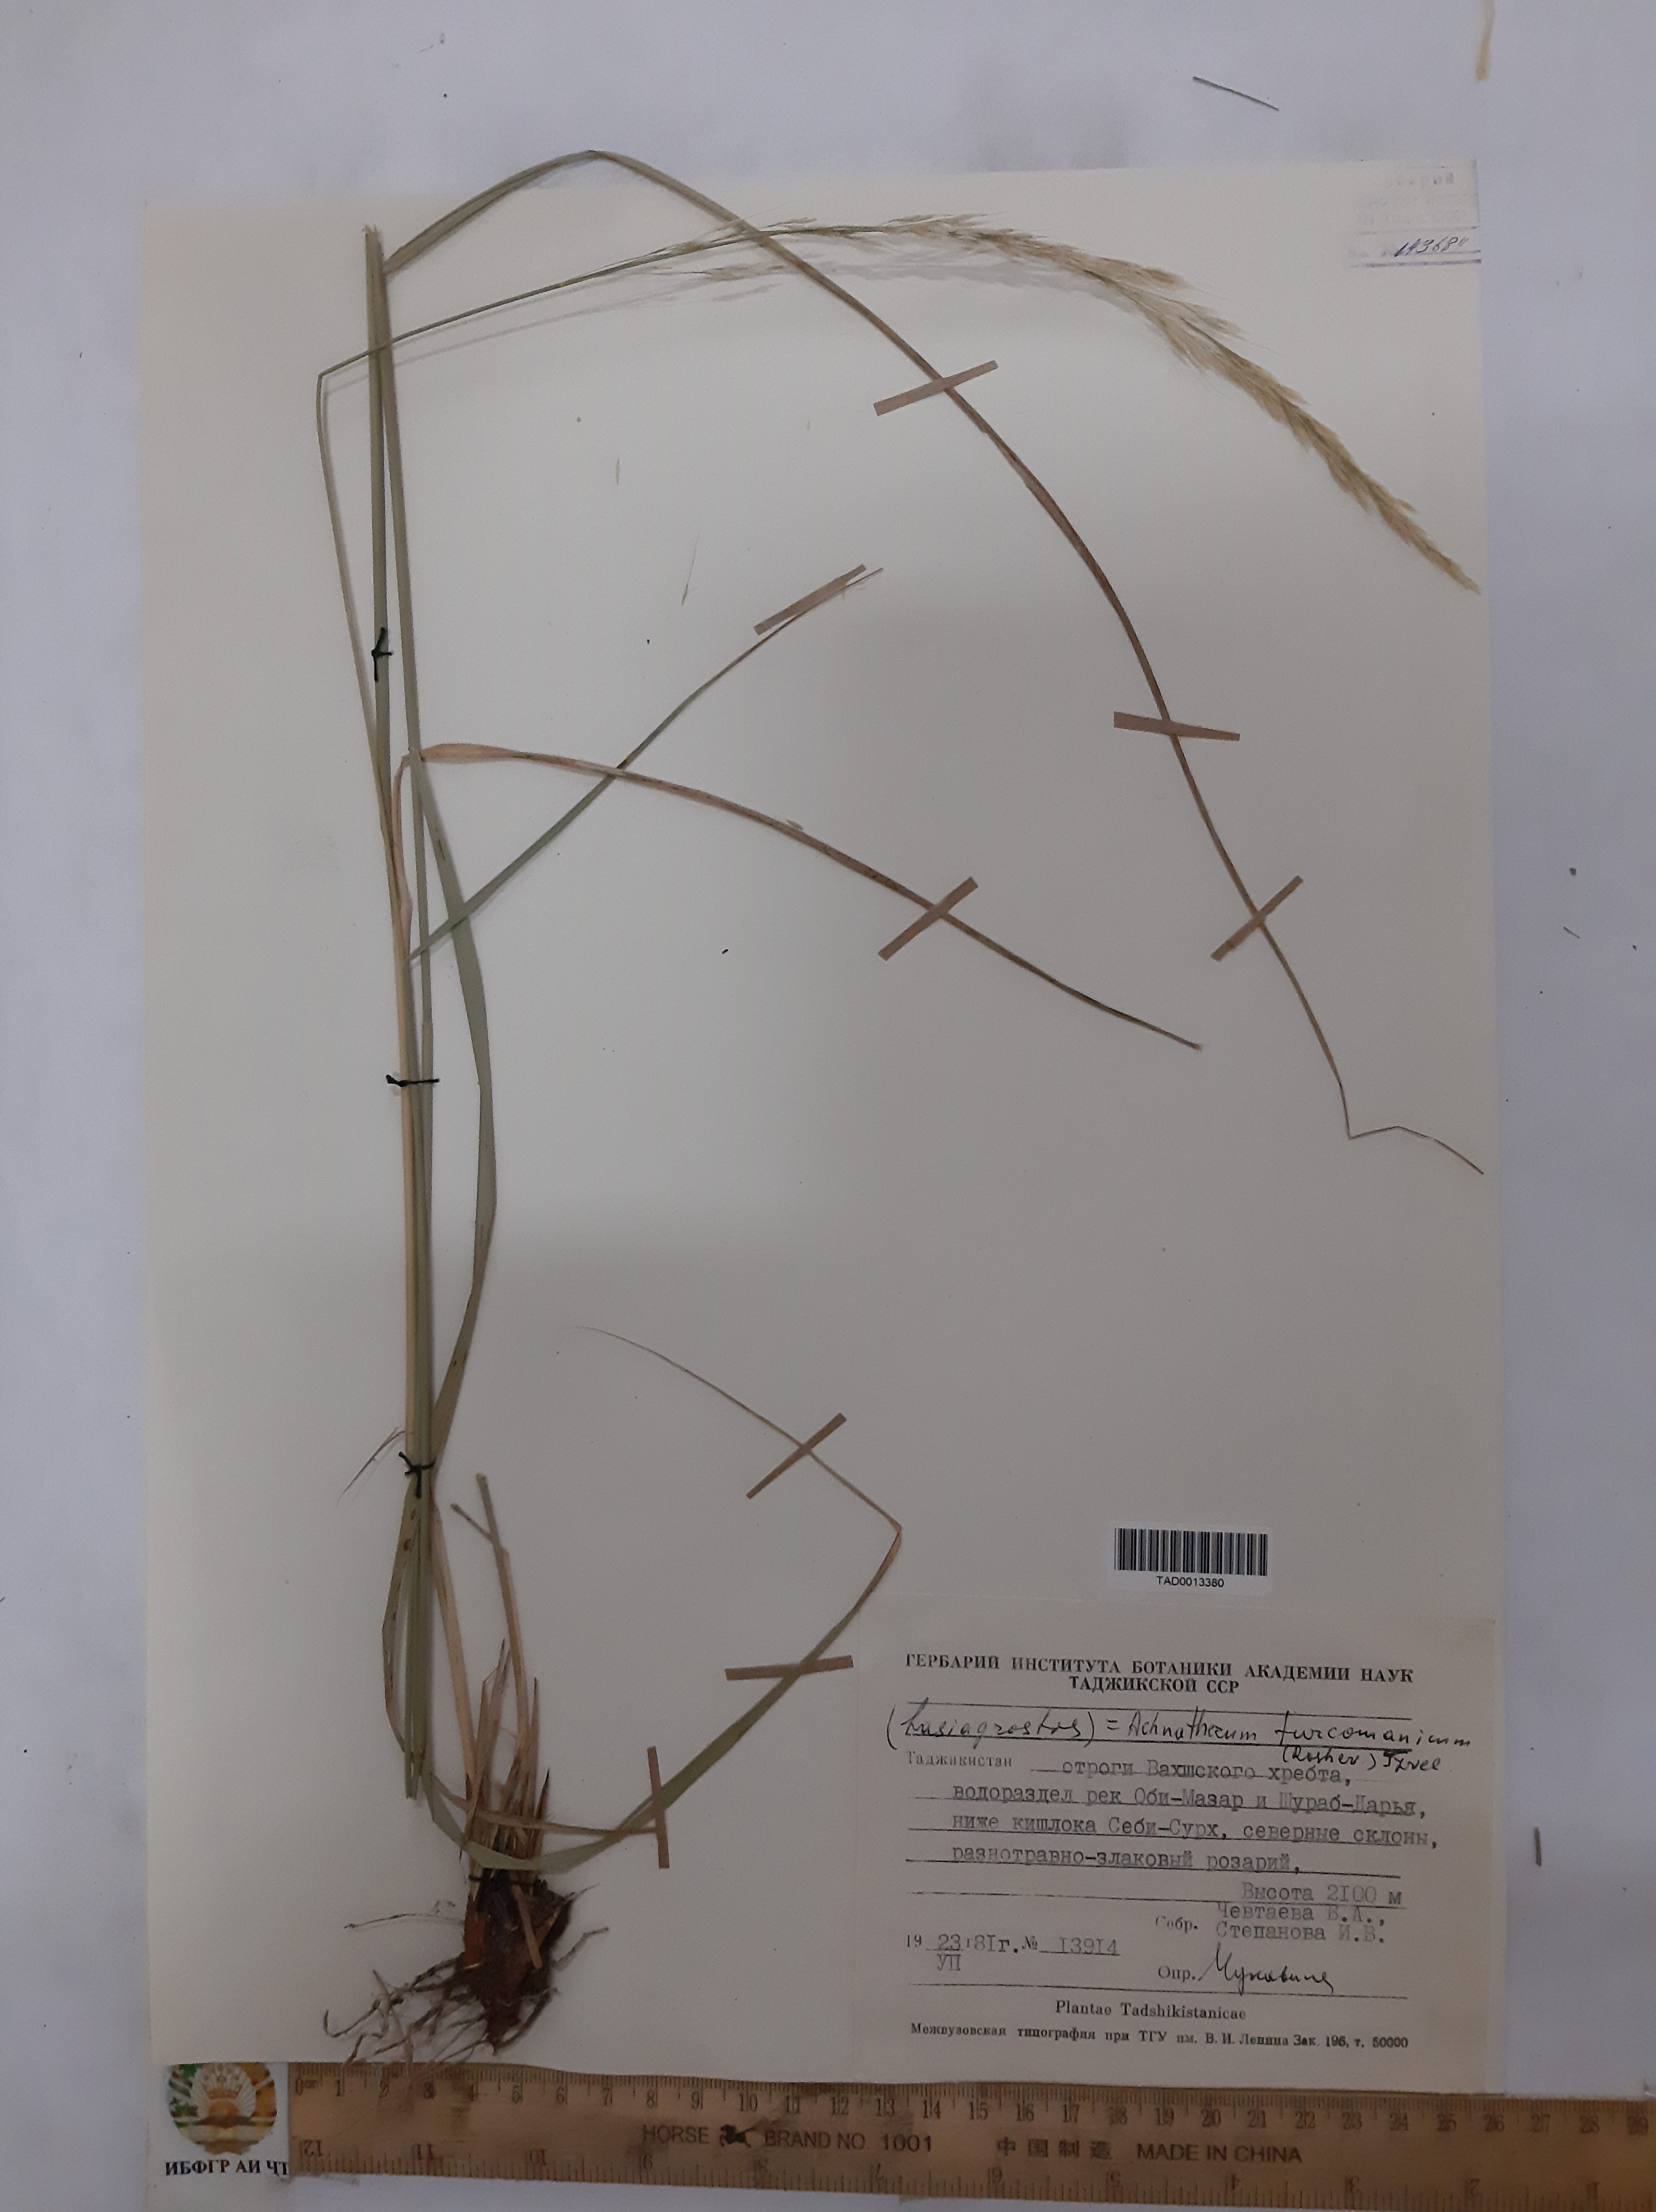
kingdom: Plantae
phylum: Tracheophyta
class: Liliopsida
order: Poales
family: Poaceae
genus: Achnatherum
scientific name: Achnatherum
